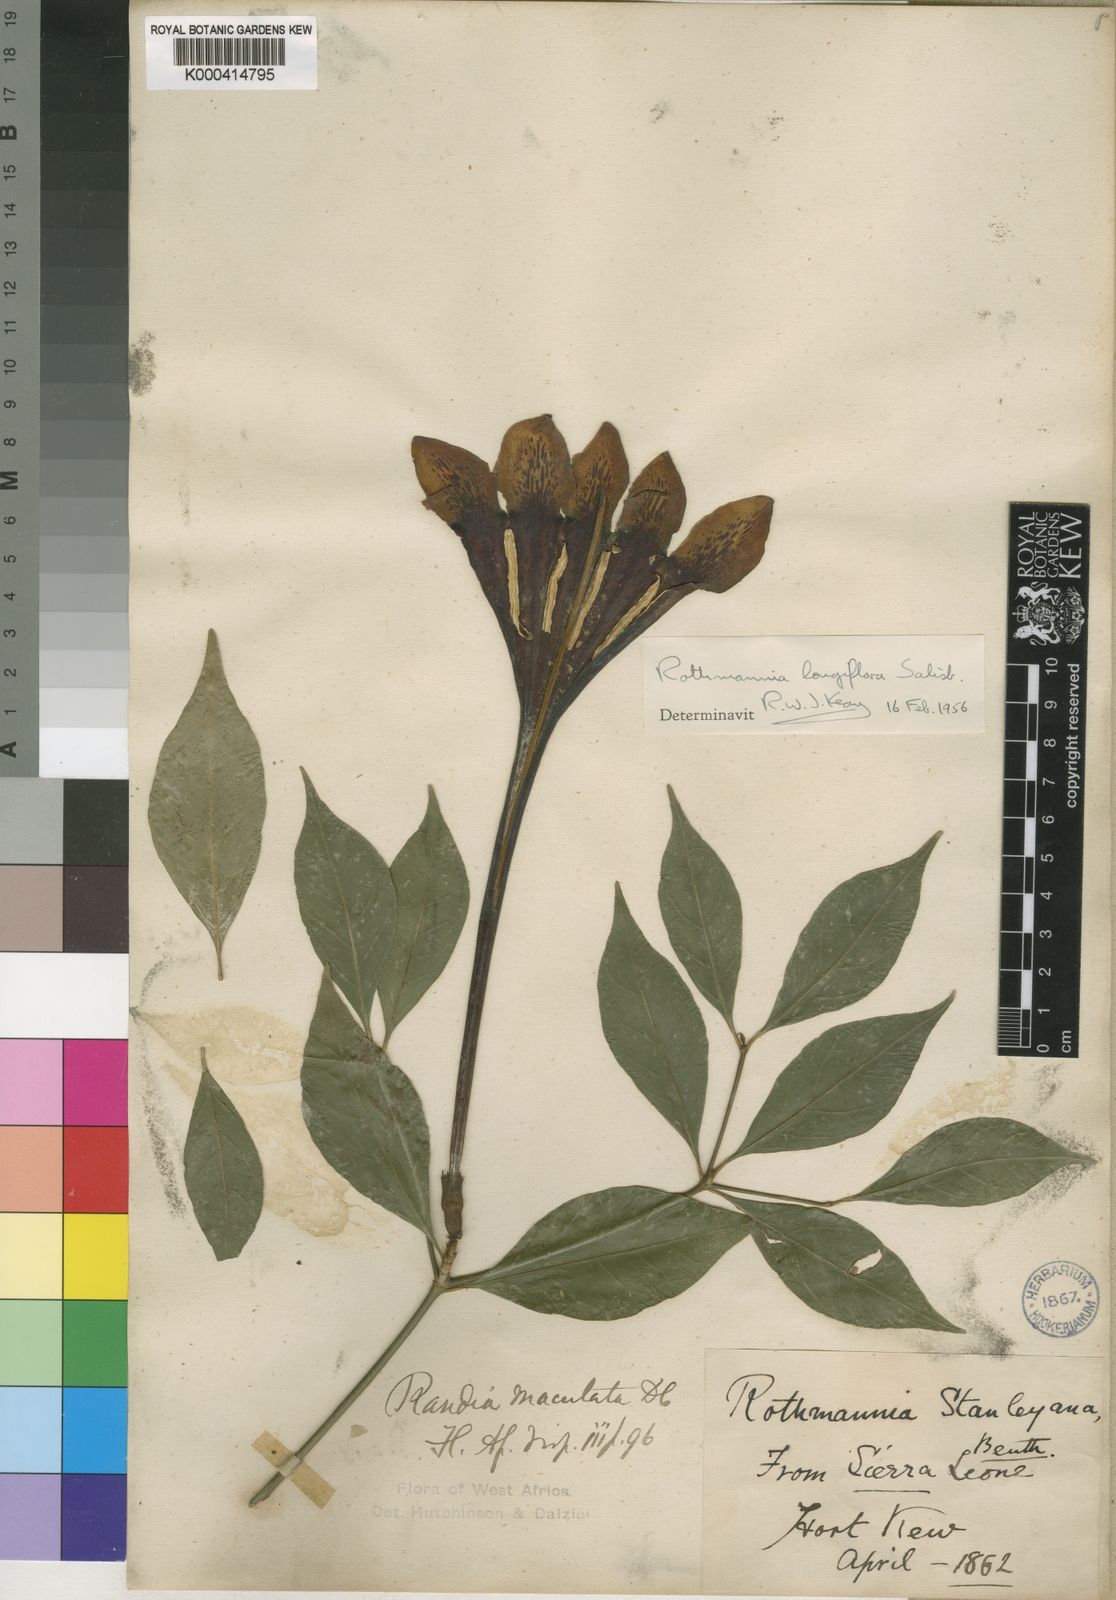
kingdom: Plantae
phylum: Tracheophyta
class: Magnoliopsida
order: Gentianales
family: Rubiaceae
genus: Rothmannia
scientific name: Rothmannia longiflora
